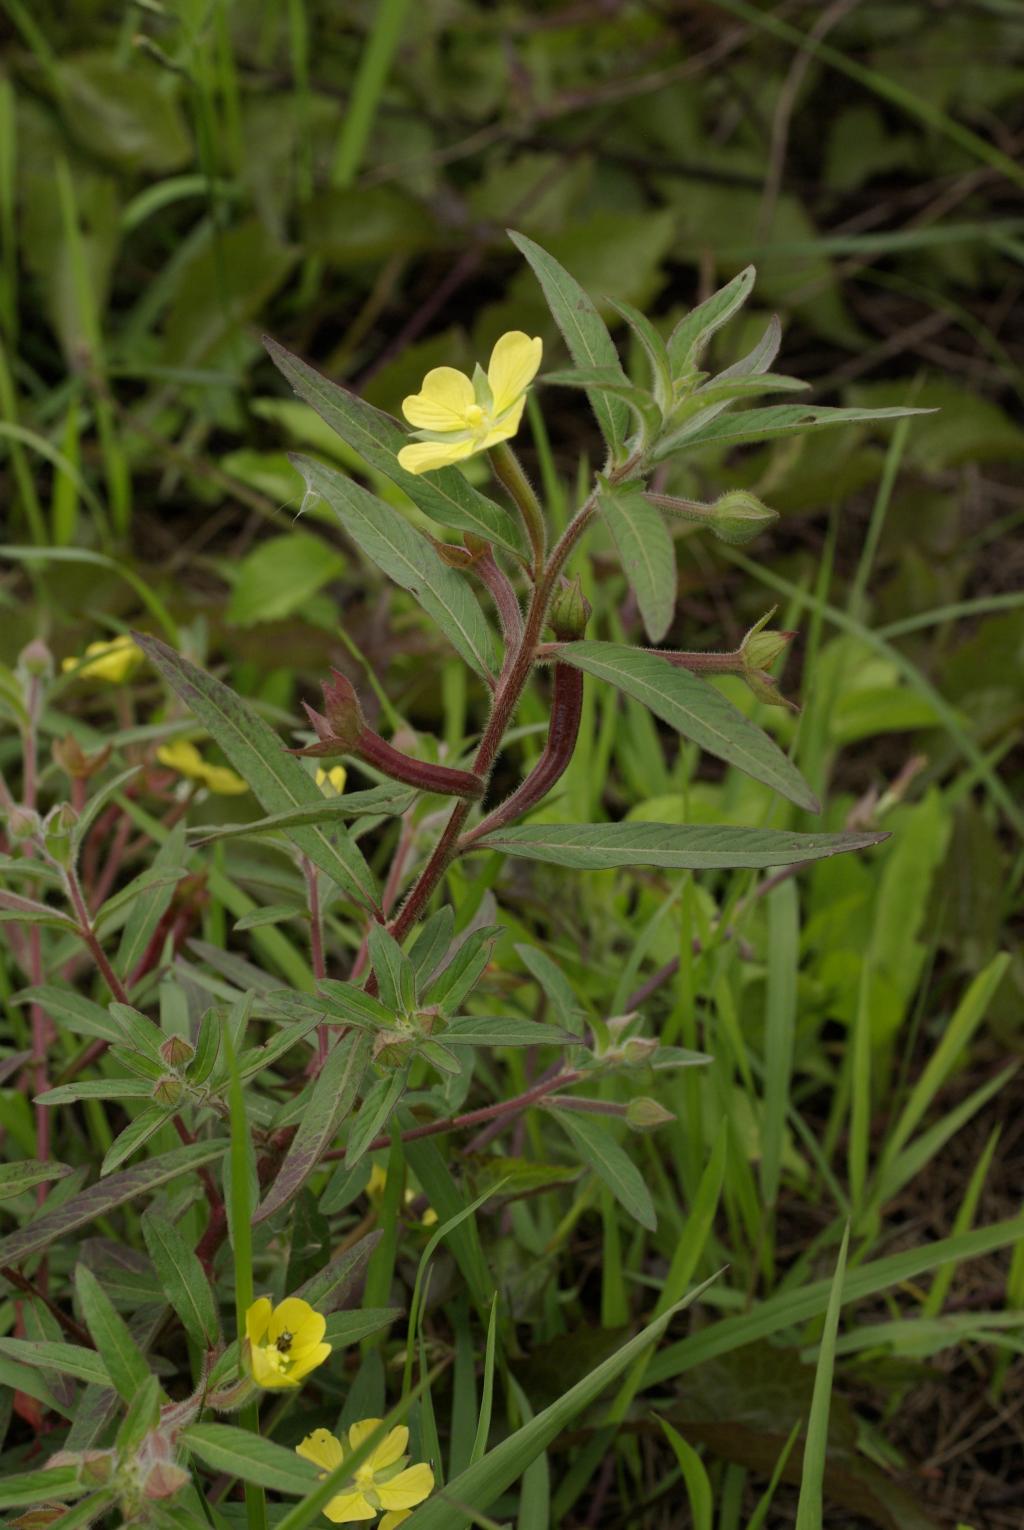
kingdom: Plantae
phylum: Tracheophyta
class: Magnoliopsida
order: Myrtales
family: Onagraceae
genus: Ludwigia
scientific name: Ludwigia octovalvis
